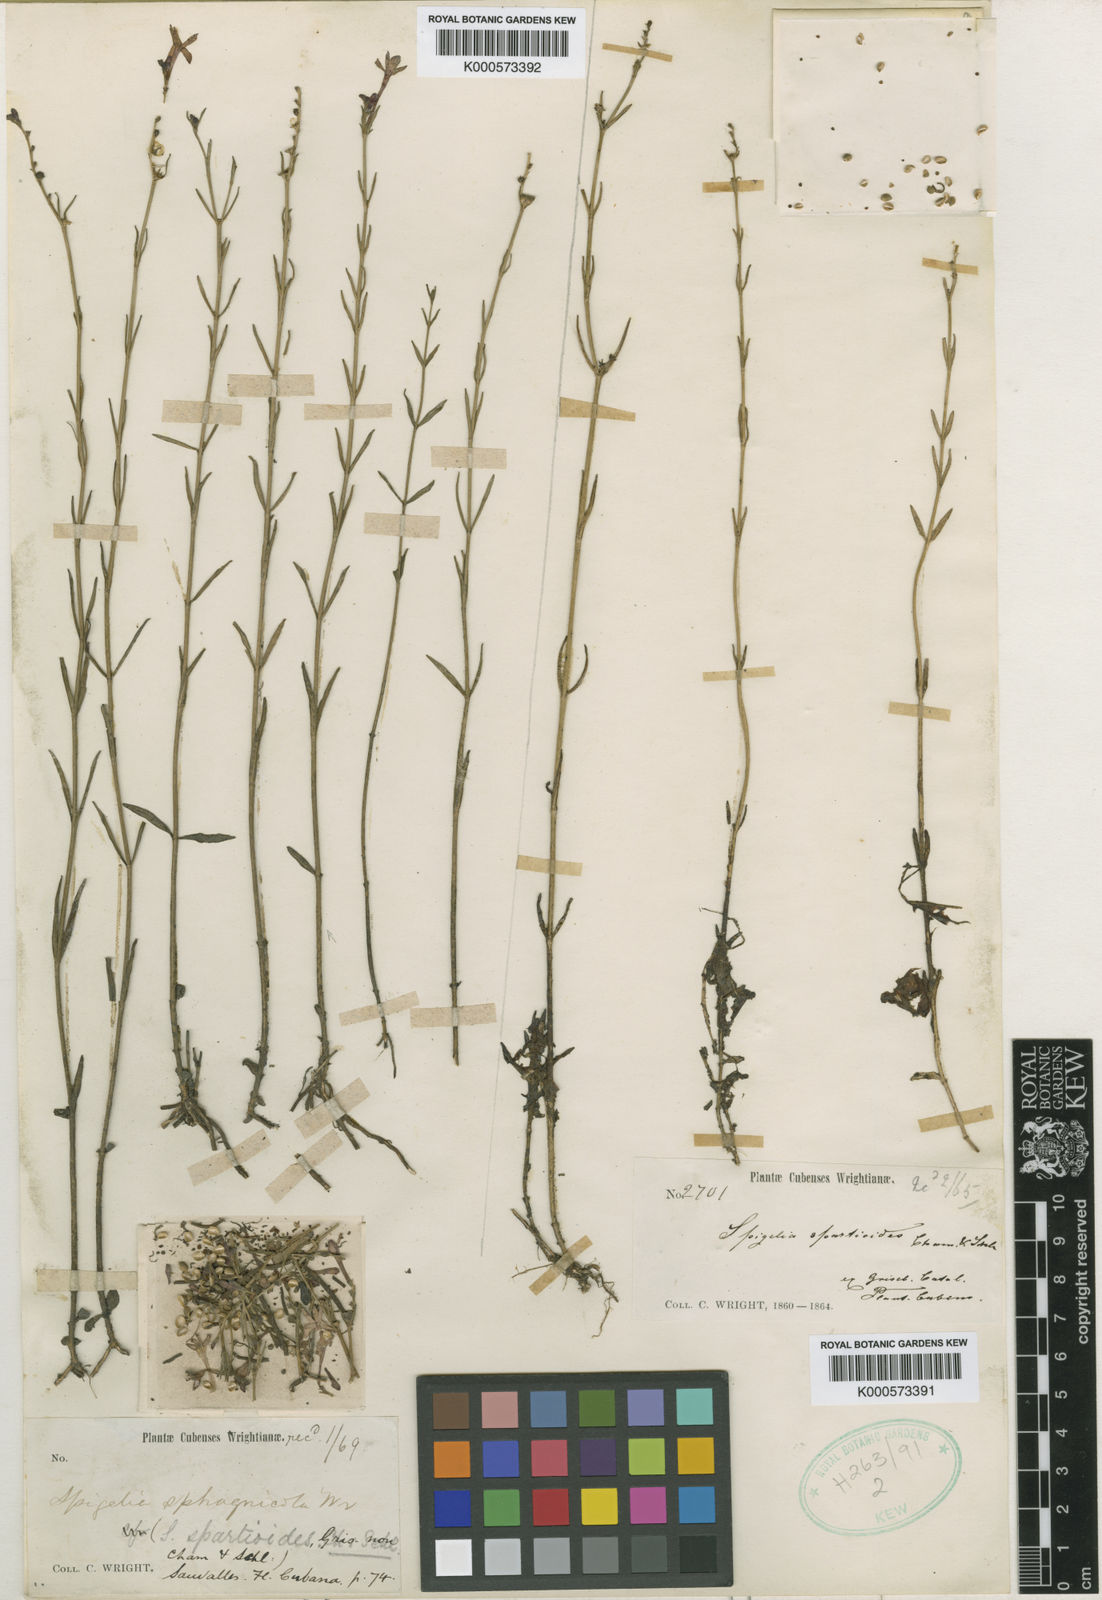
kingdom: Plantae
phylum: Tracheophyta
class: Magnoliopsida
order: Gentianales
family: Loganiaceae
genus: Spigelia
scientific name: Spigelia sphagnicola
